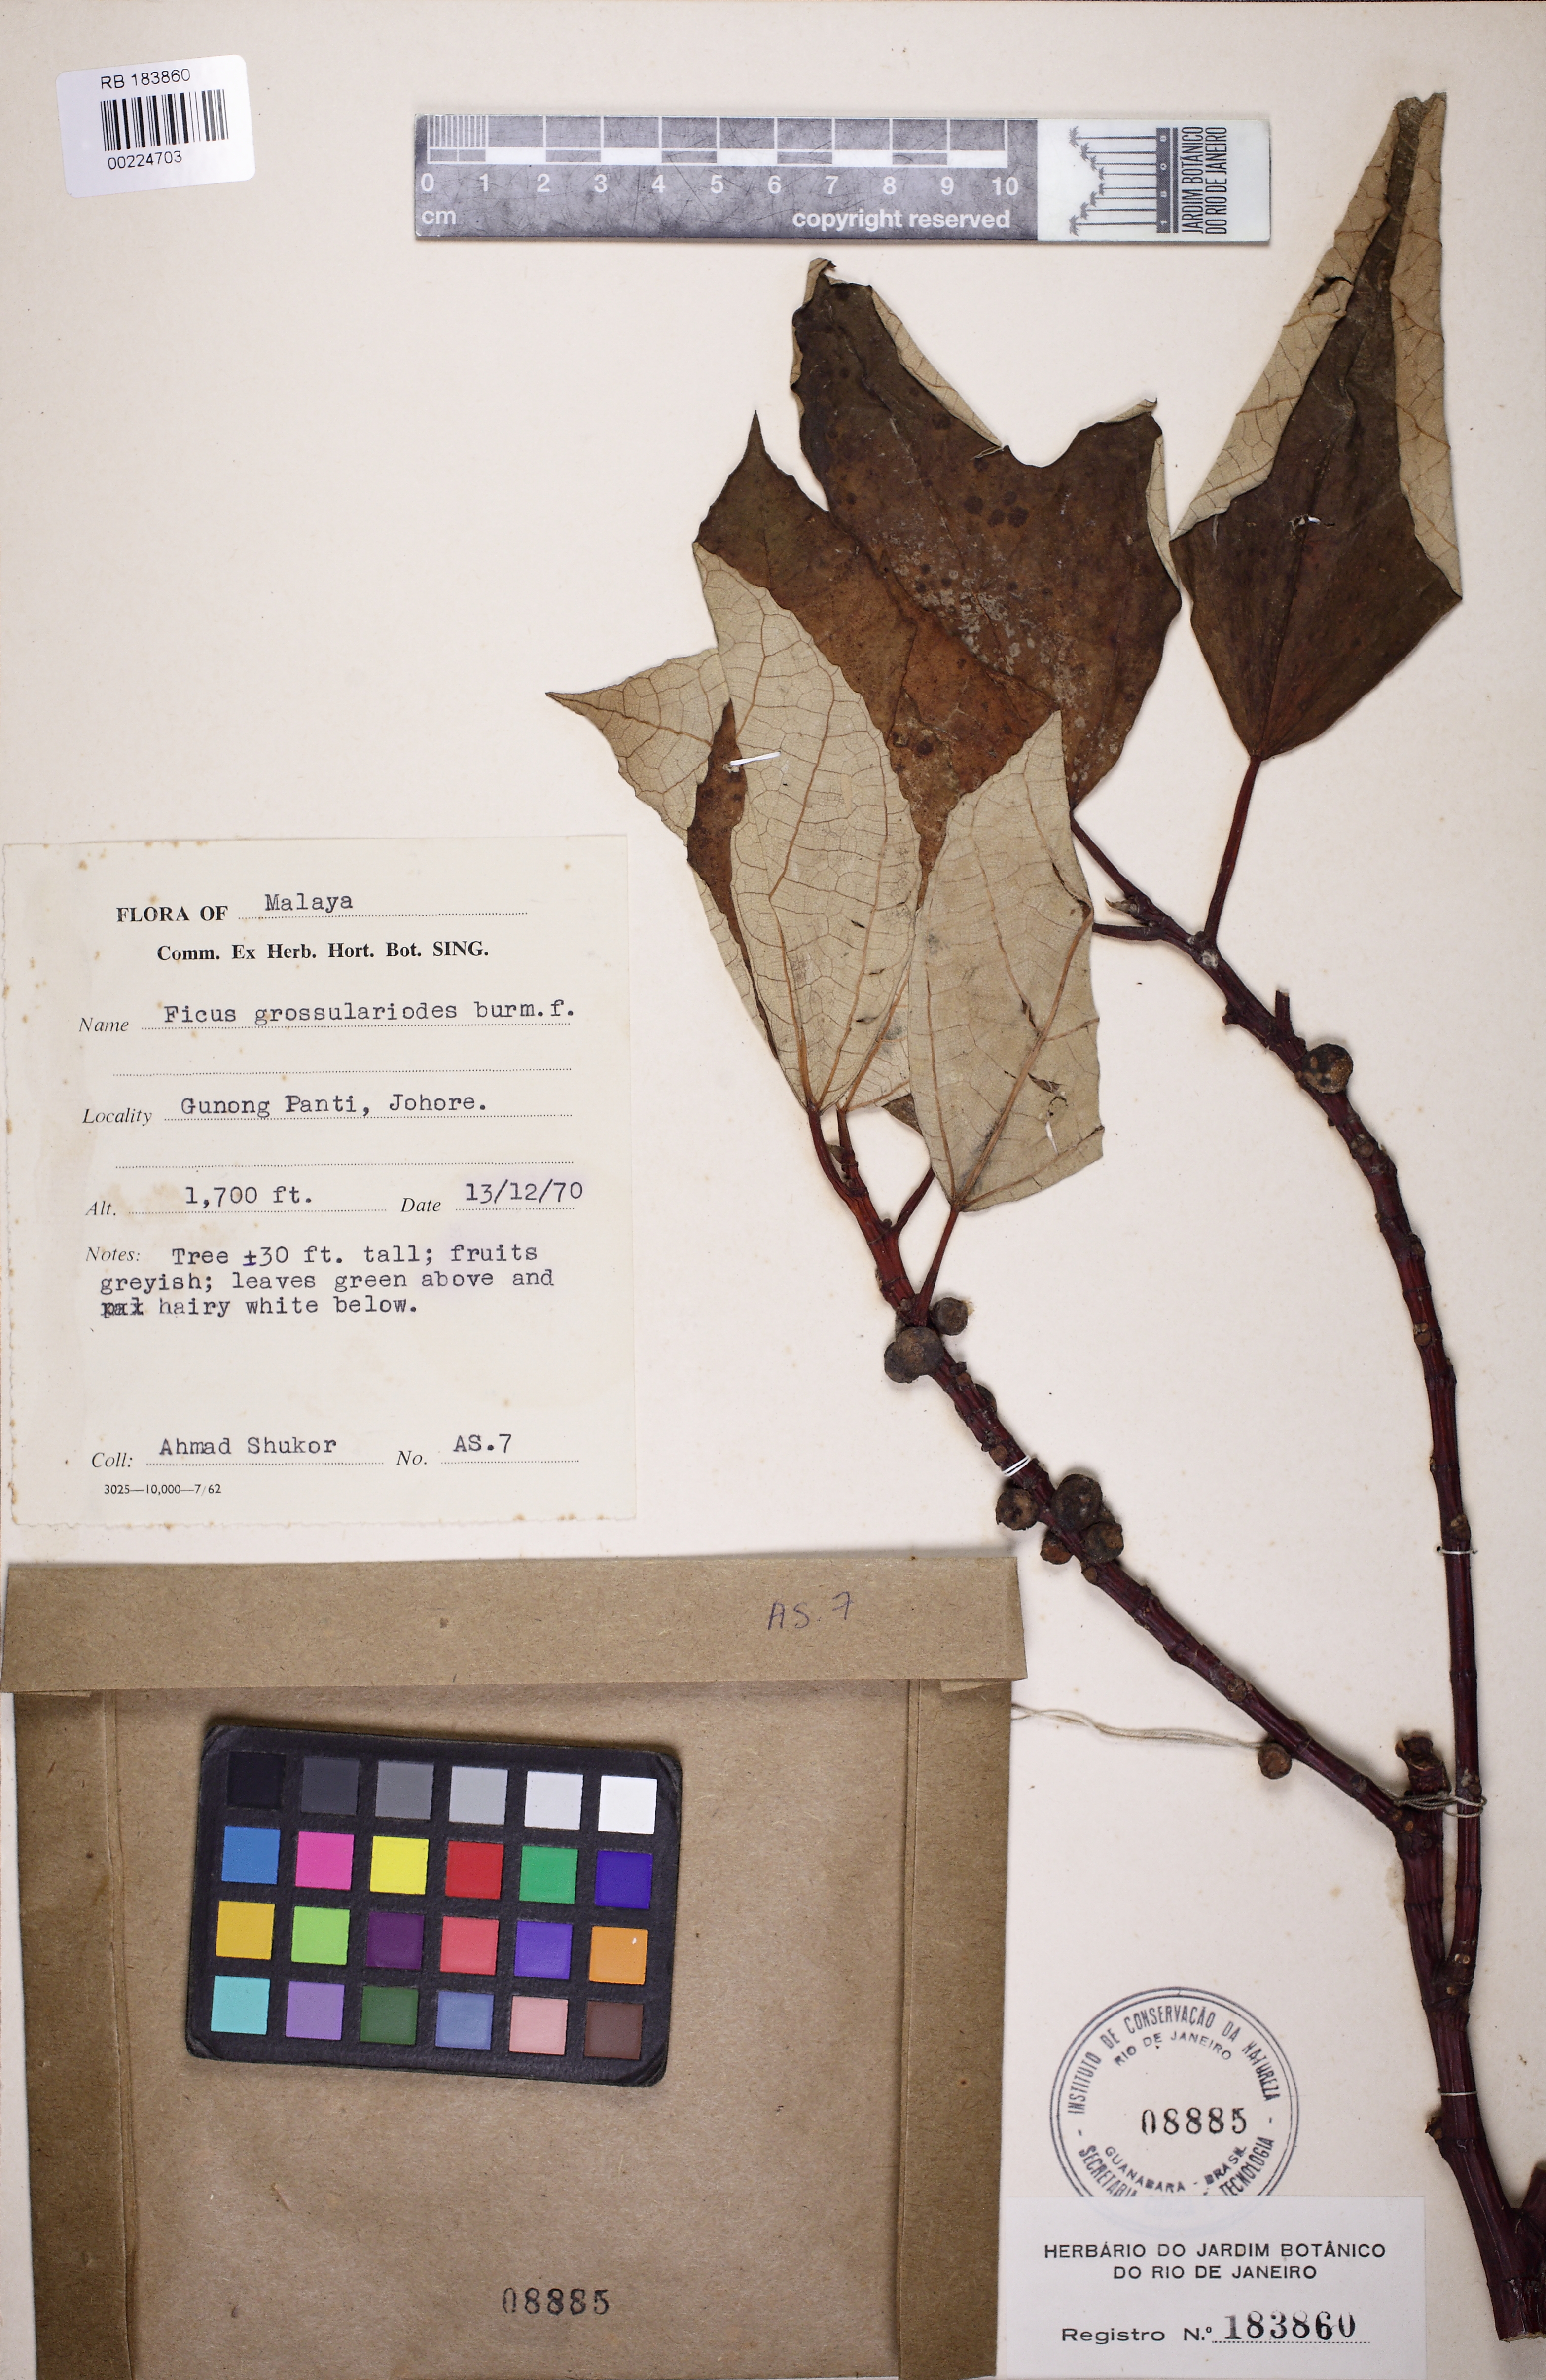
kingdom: Plantae
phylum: Tracheophyta
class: Magnoliopsida
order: Rosales
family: Moraceae
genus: Ficus
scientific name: Ficus grossularioides
